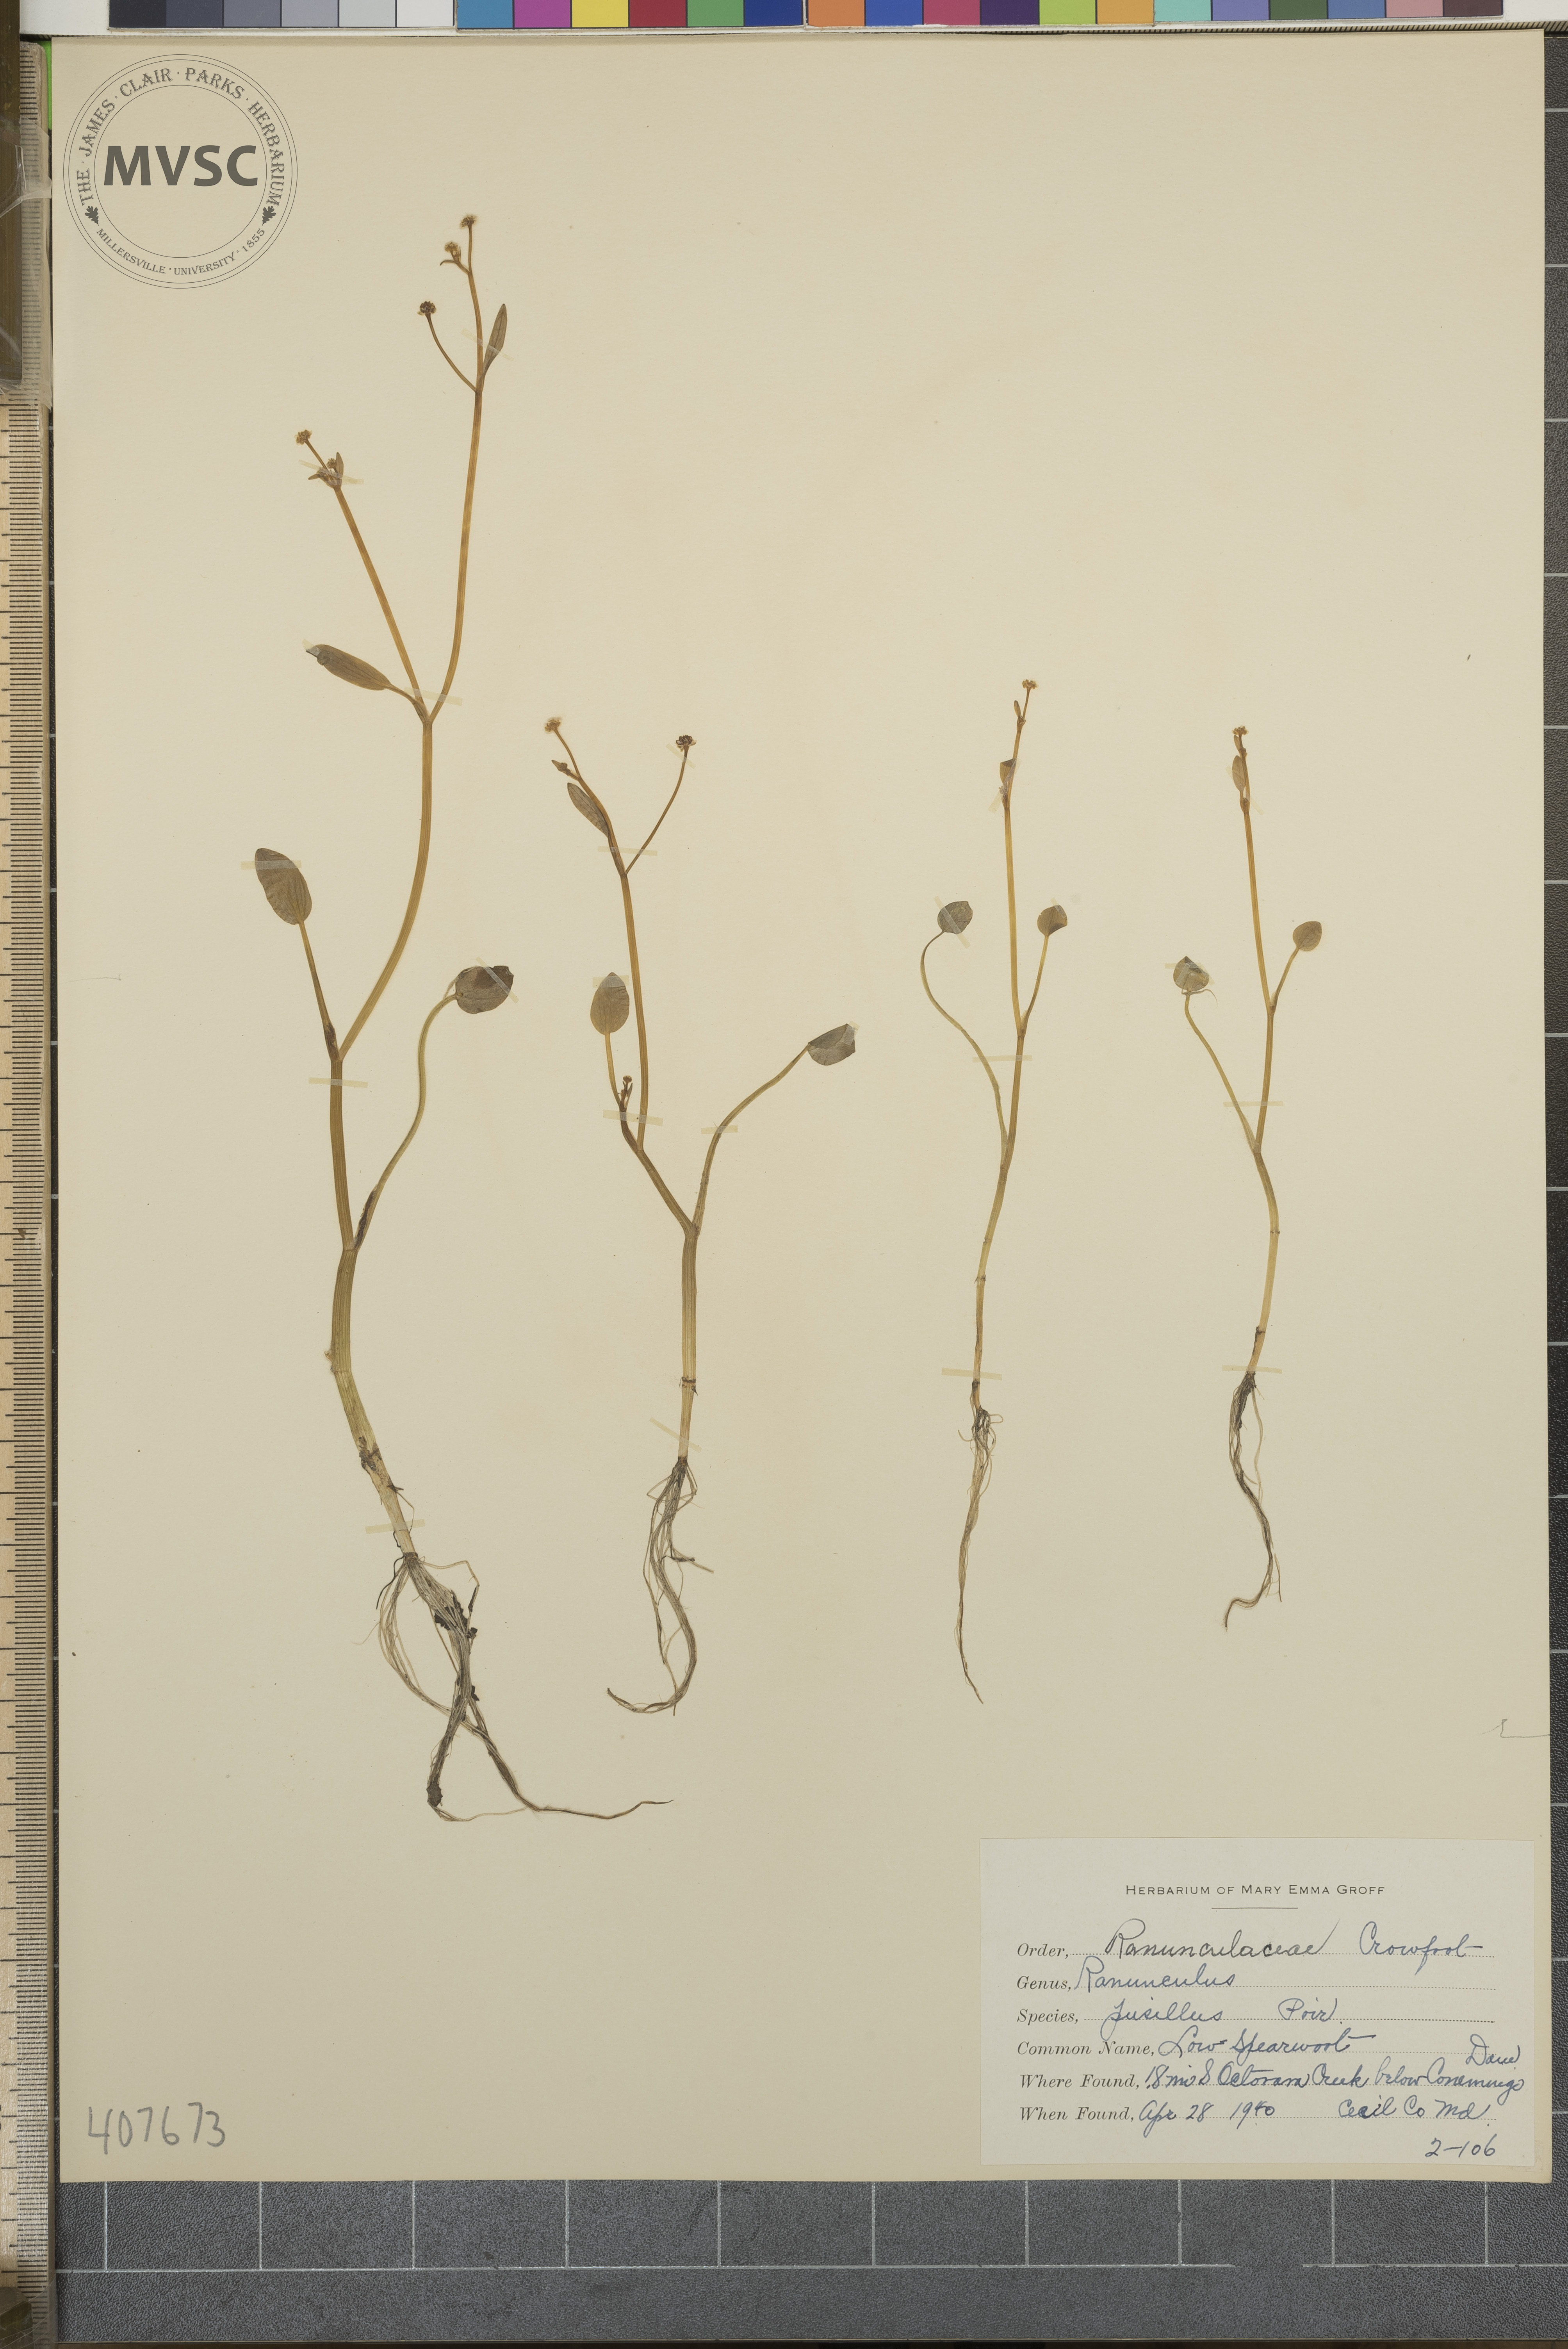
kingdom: Plantae
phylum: Tracheophyta
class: Magnoliopsida
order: Ranunculales
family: Ranunculaceae
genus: Ranunculus
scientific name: Ranunculus pusillus
